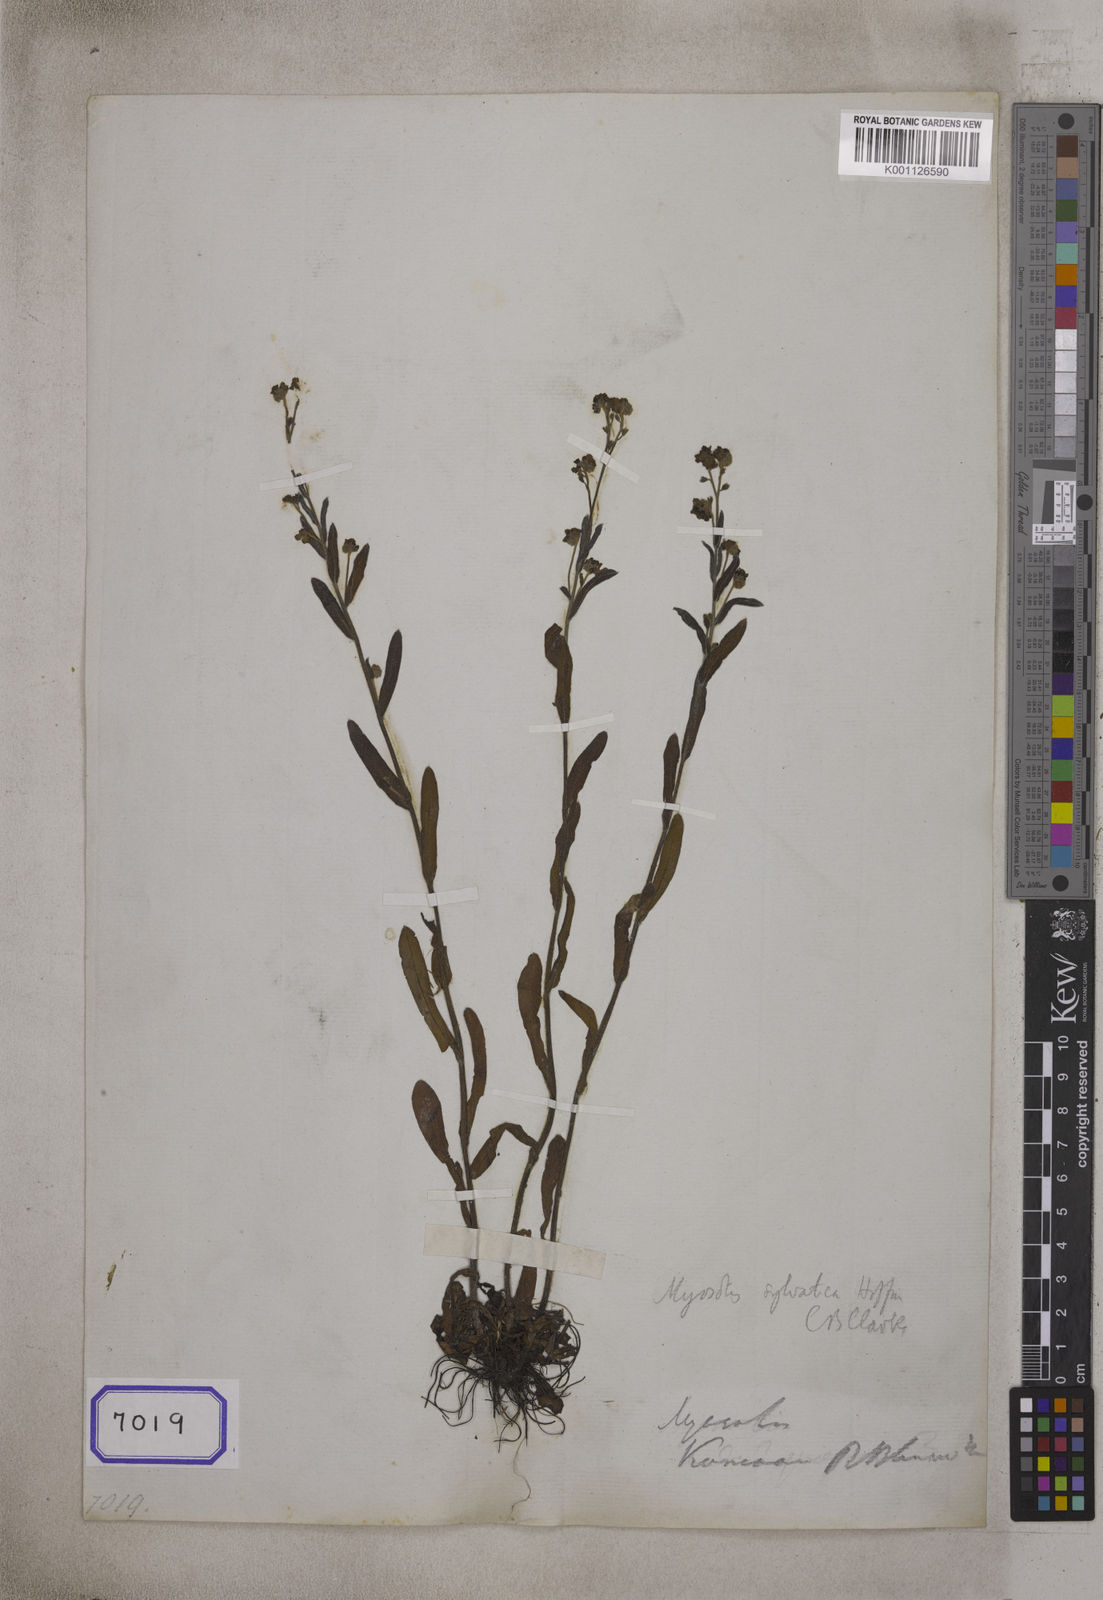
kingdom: Plantae
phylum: Tracheophyta
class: Magnoliopsida
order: Boraginales
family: Boraginaceae
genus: Myosotis
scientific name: Myosotis
